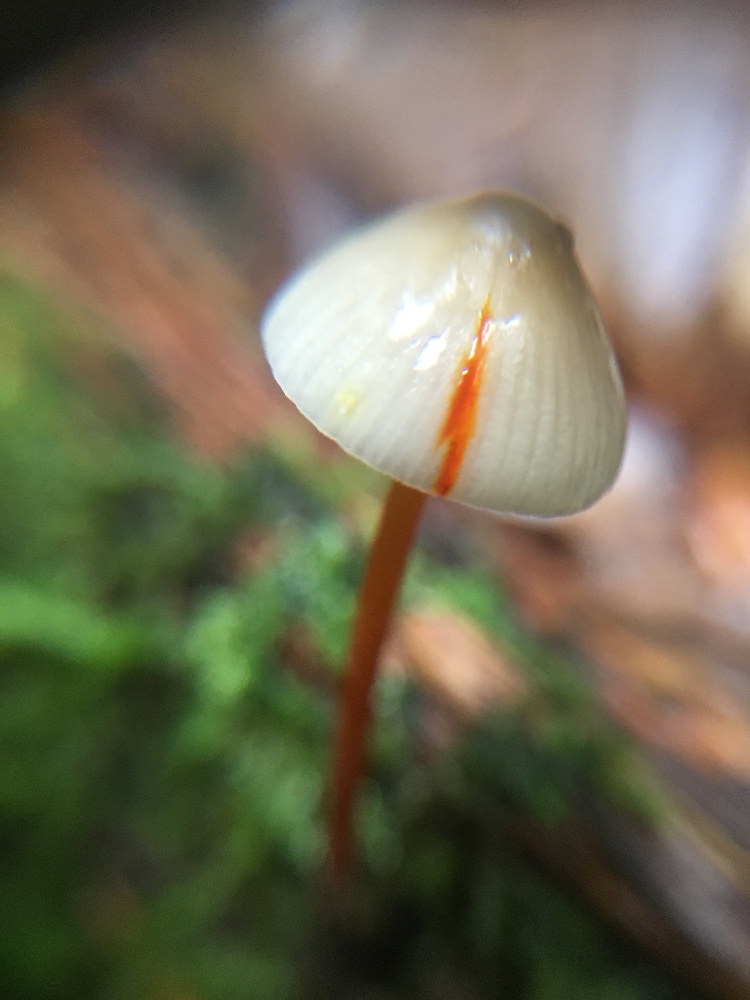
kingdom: Fungi
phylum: Basidiomycota
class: Agaricomycetes
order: Agaricales
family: Mycenaceae
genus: Mycena
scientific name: Mycena crocata
